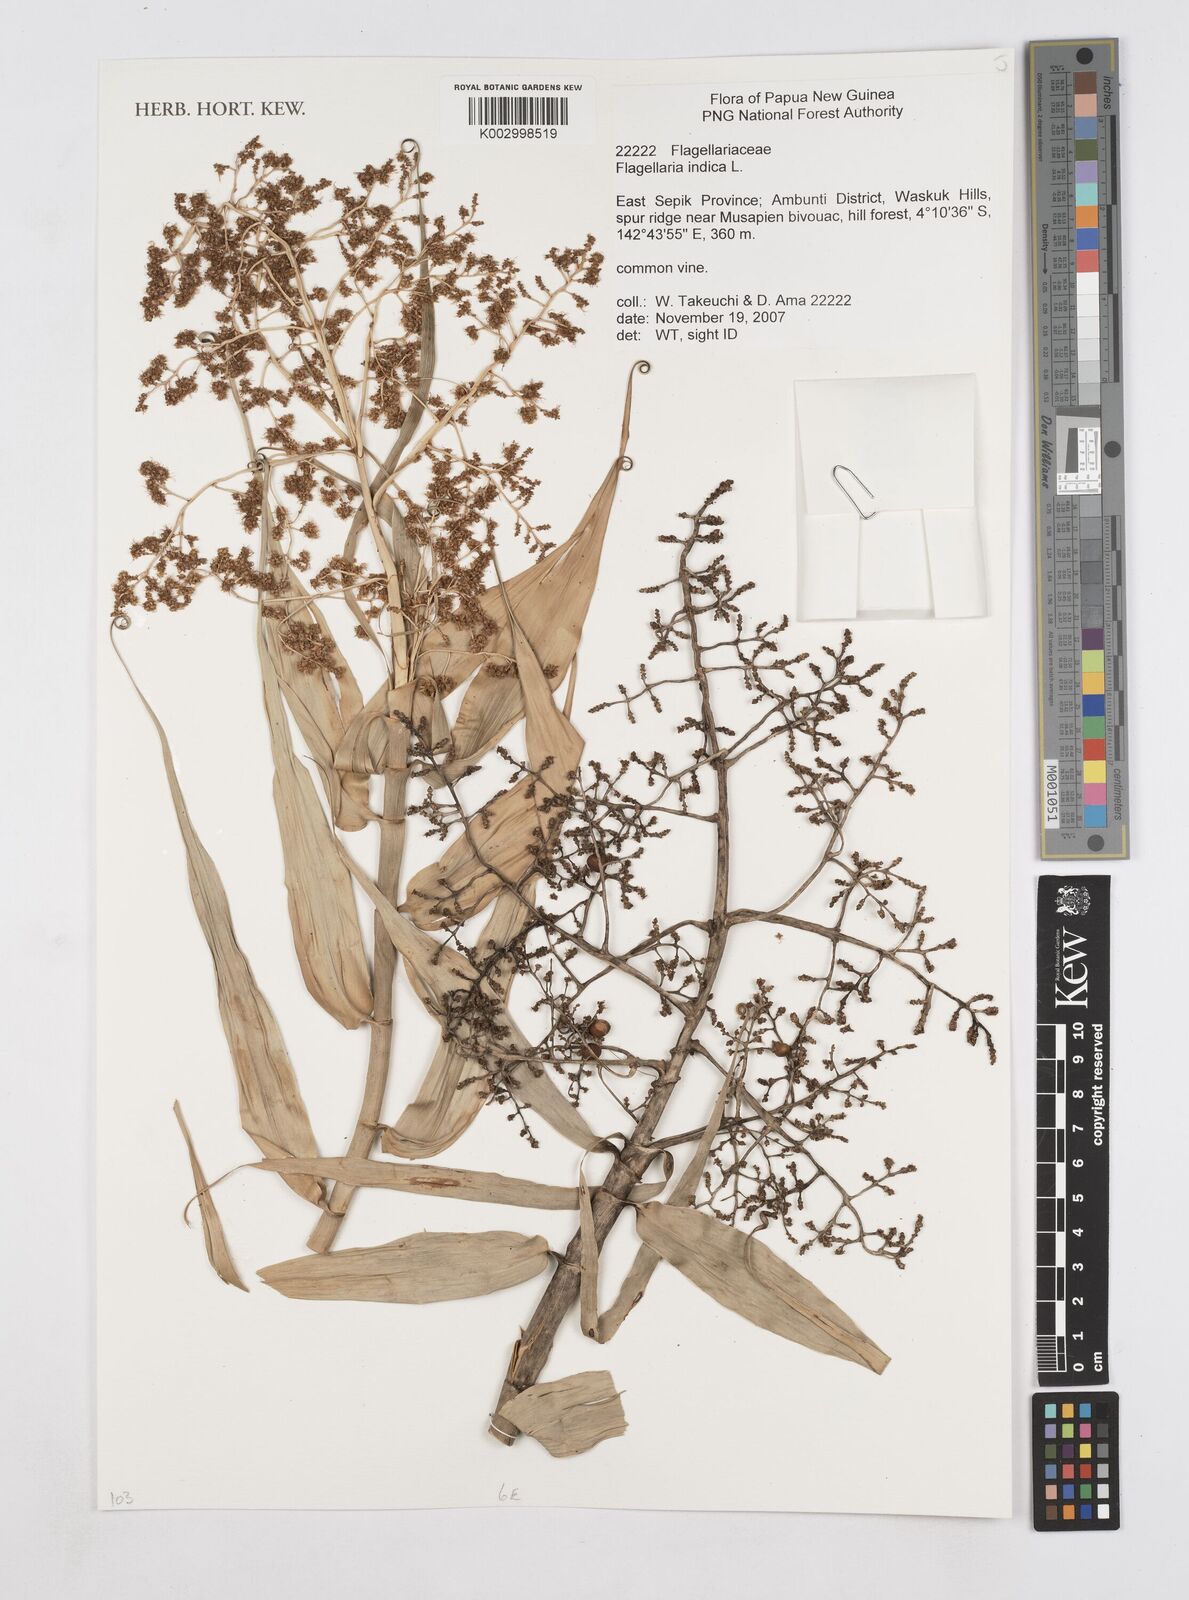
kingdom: Plantae
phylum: Tracheophyta
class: Liliopsida
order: Poales
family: Flagellariaceae
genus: Flagellaria
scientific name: Flagellaria indica
